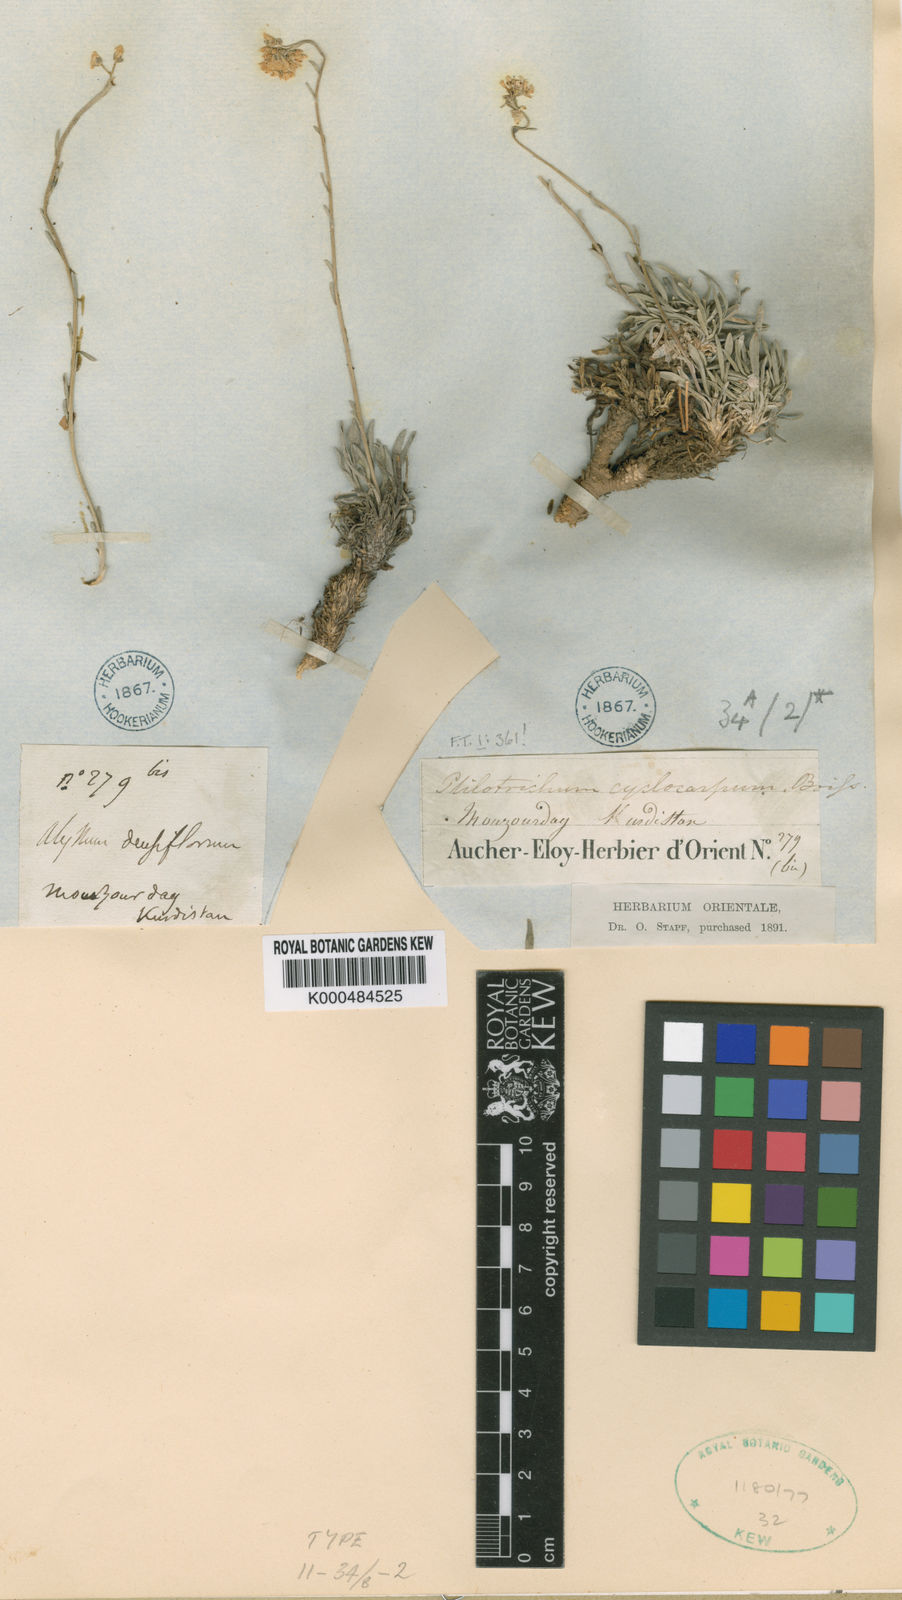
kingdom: Plantae
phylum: Tracheophyta
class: Magnoliopsida
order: Brassicales
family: Brassicaceae
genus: Phyllolepidium
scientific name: Phyllolepidium cyclocarpum
